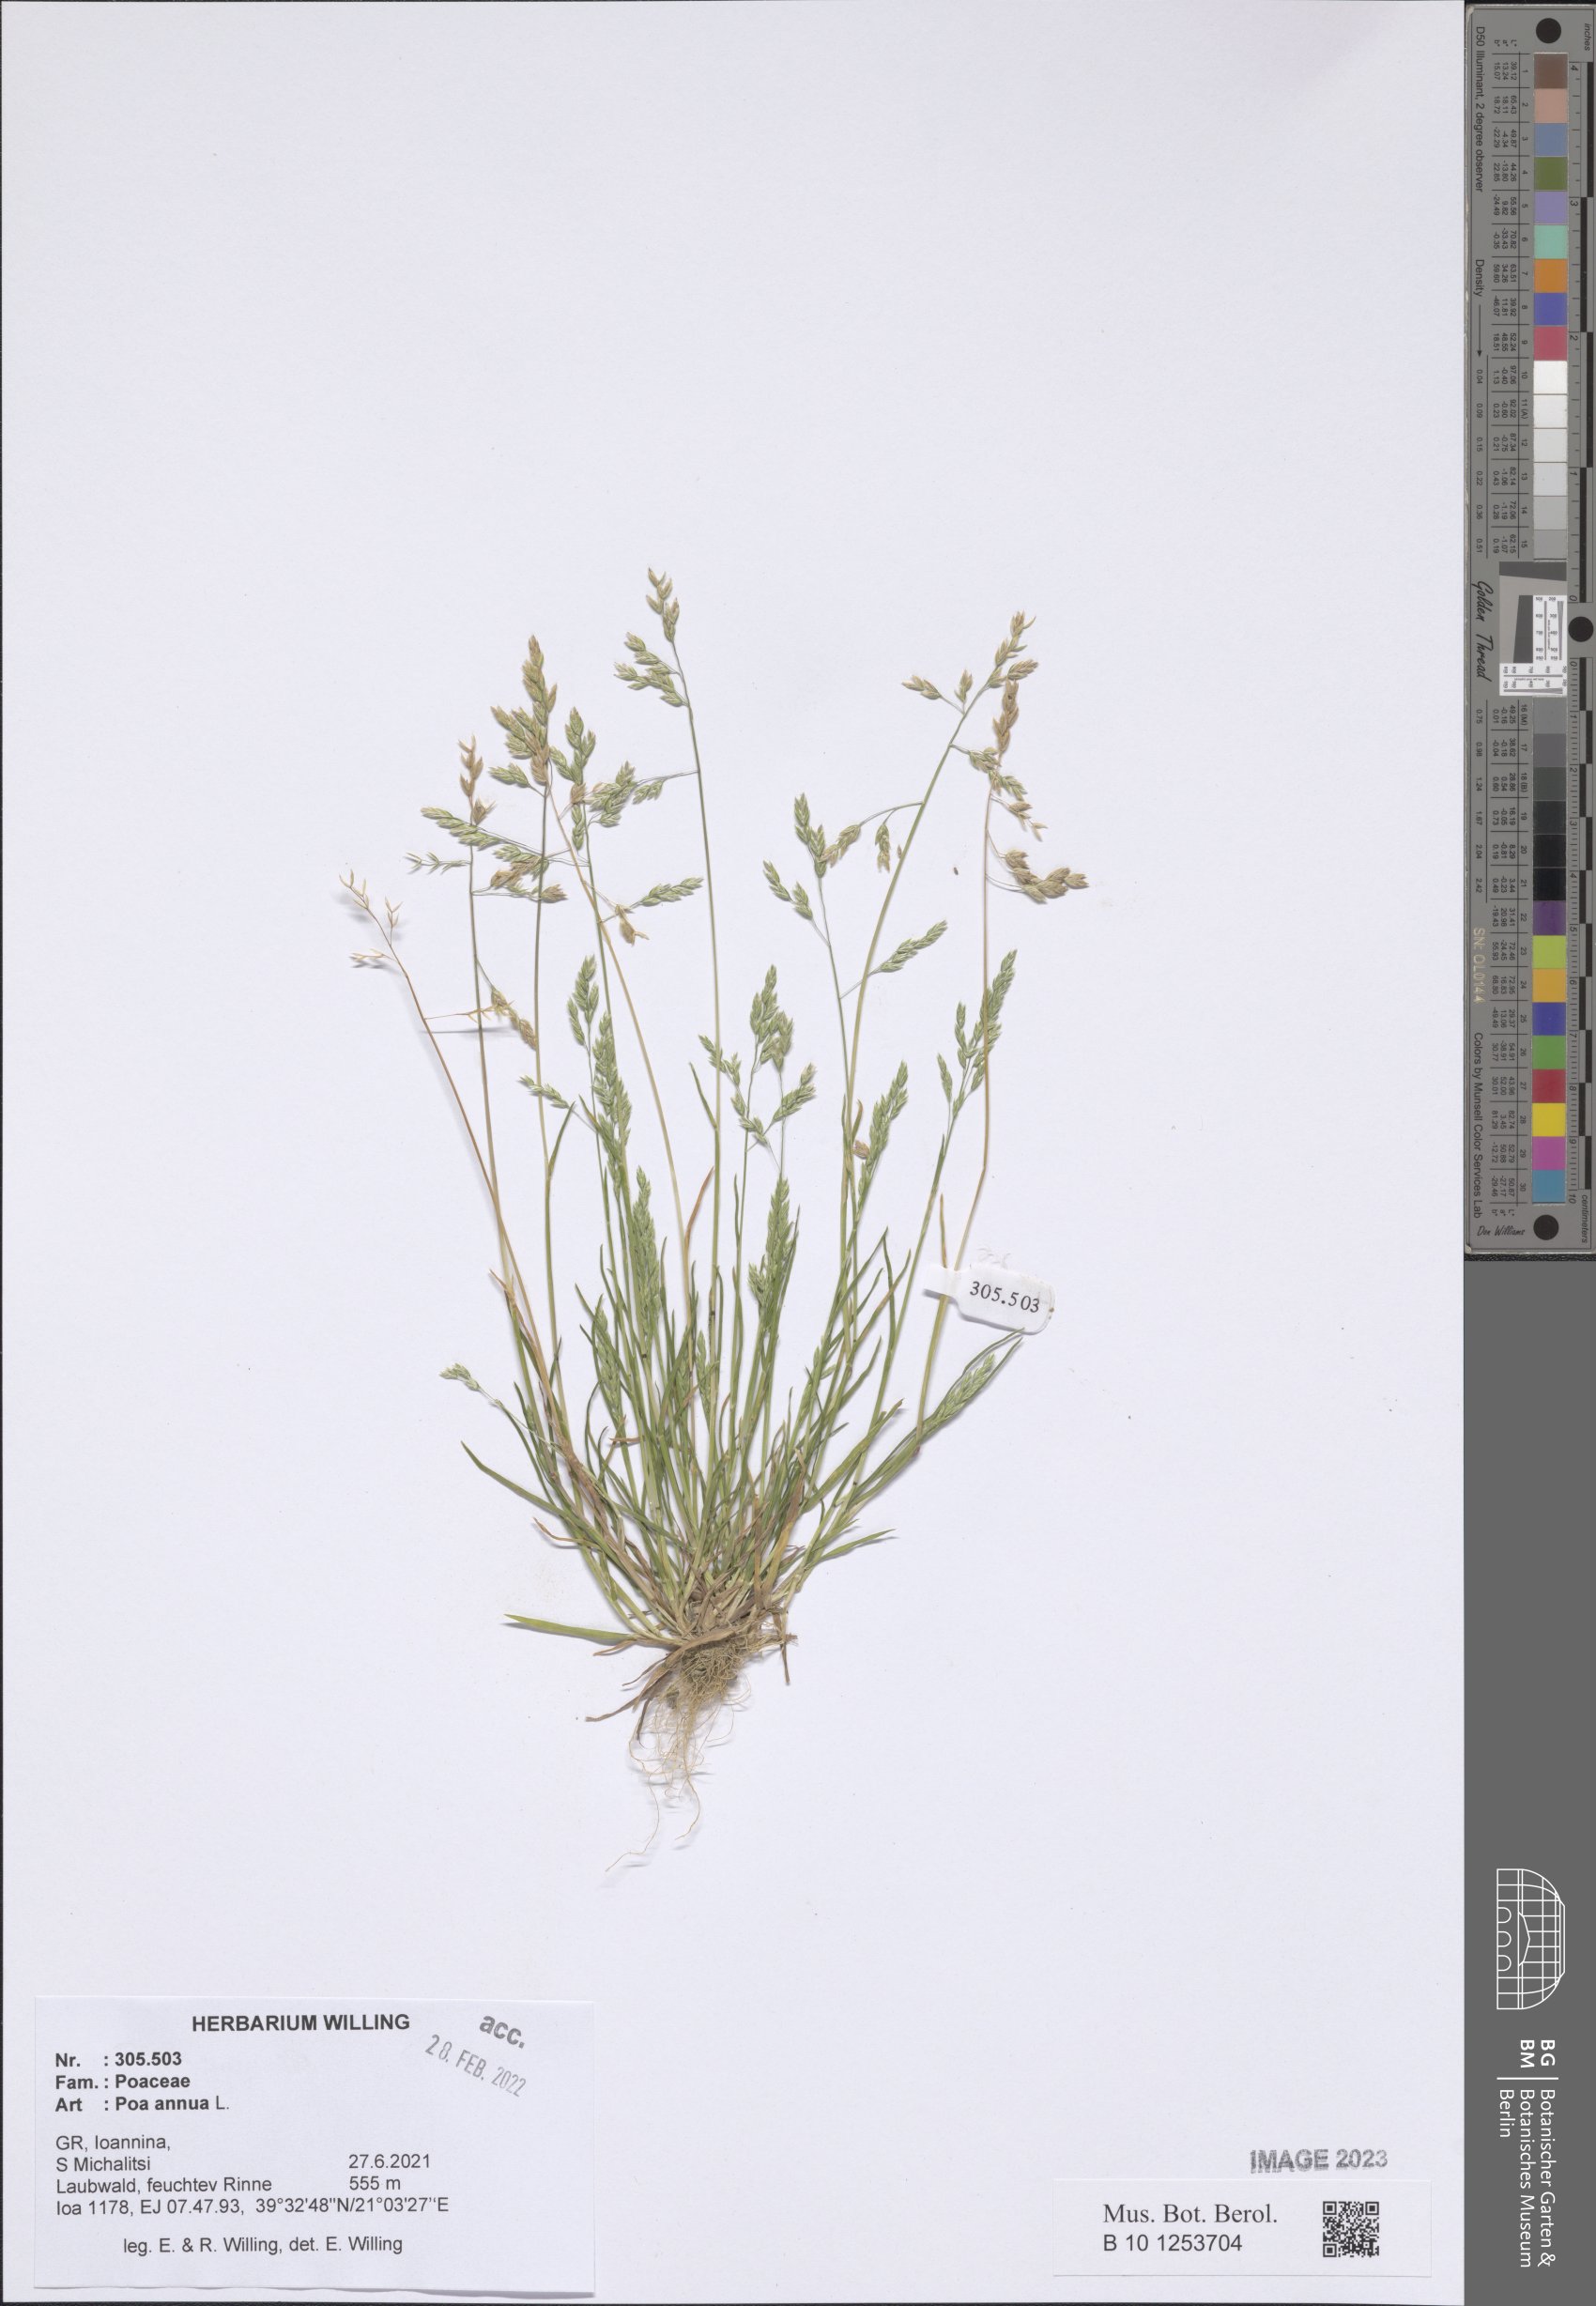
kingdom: Plantae
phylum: Tracheophyta
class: Liliopsida
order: Poales
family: Poaceae
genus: Poa
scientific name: Poa annua
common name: Annual bluegrass
